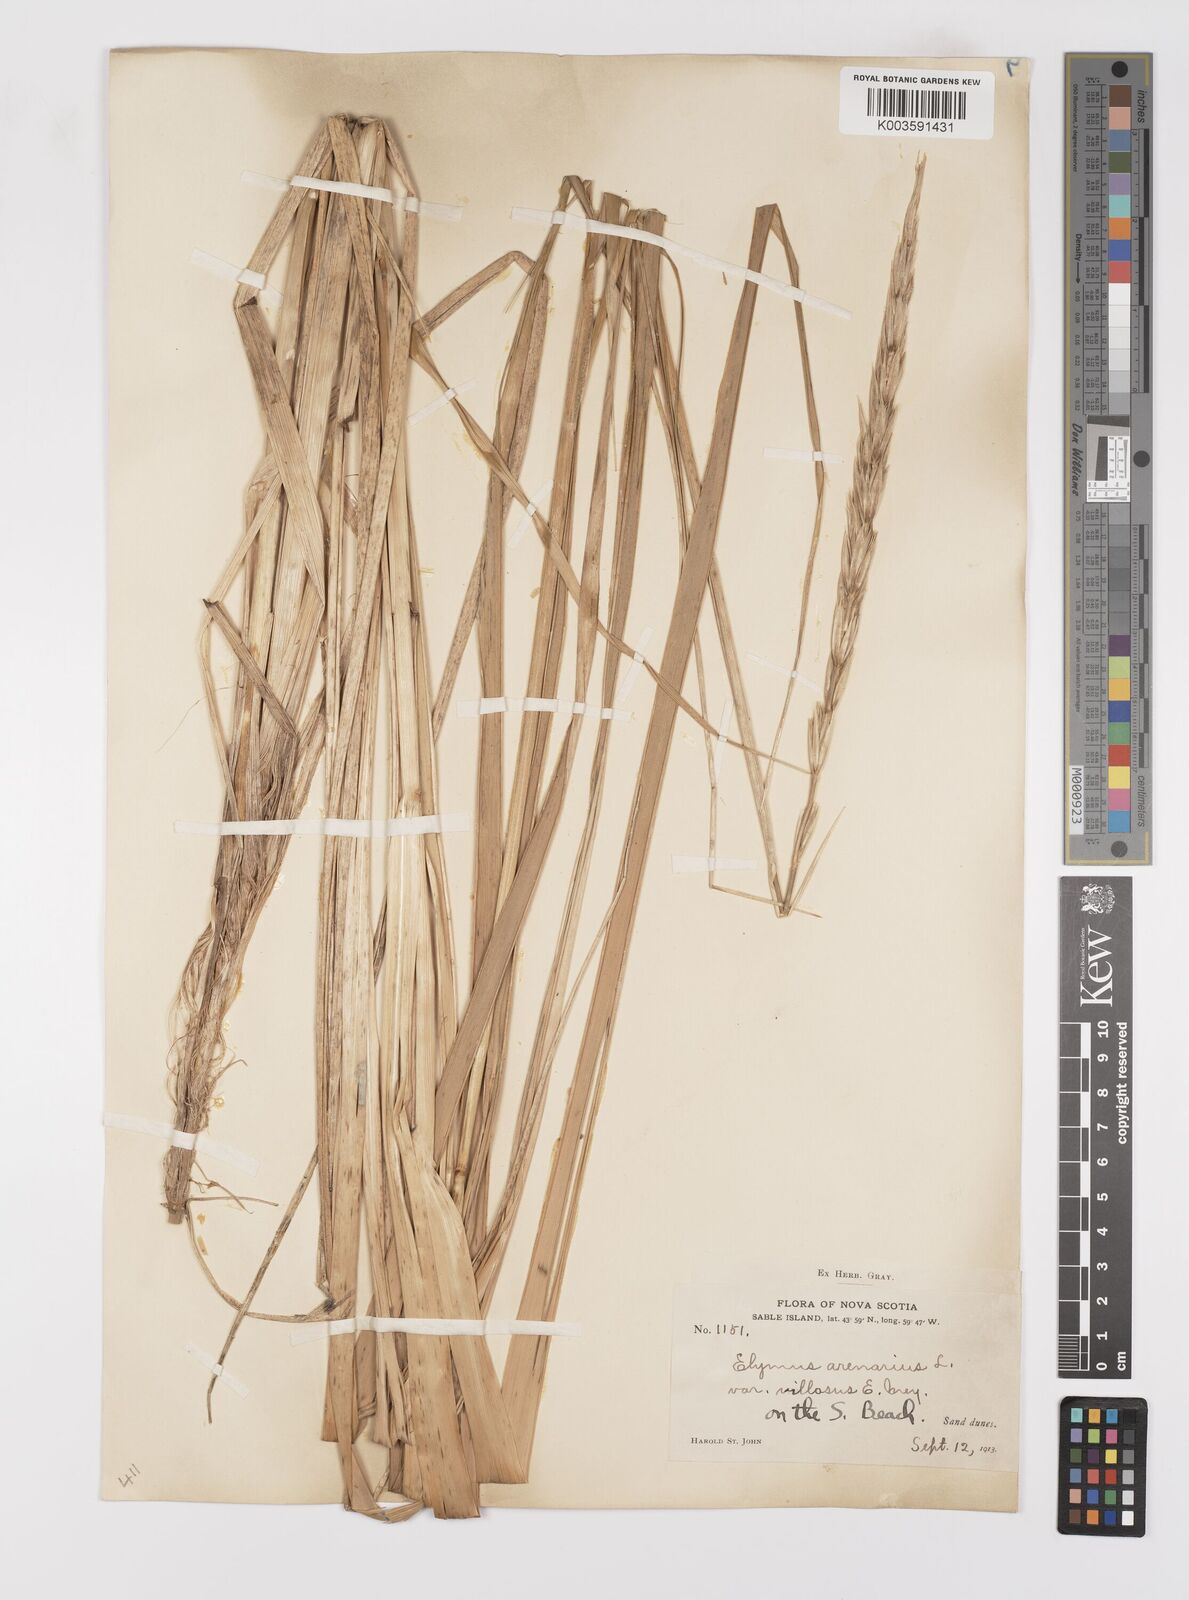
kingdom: Plantae
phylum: Tracheophyta
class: Liliopsida
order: Poales
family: Poaceae
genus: Leymus
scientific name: Leymus mollis
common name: American dune grass
